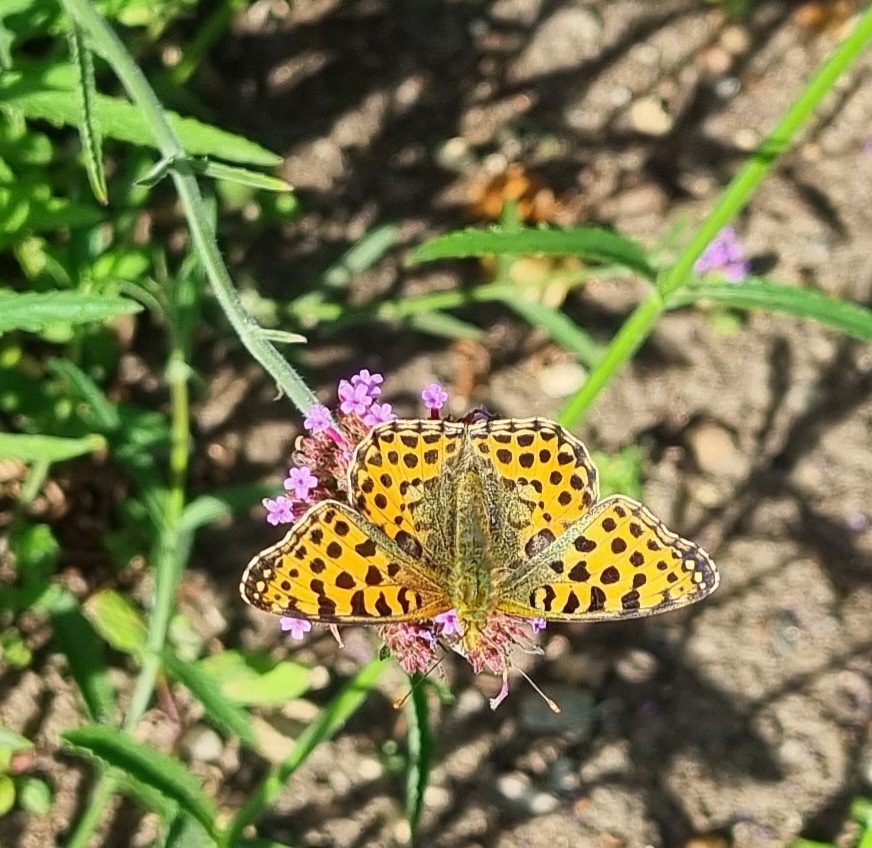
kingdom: Animalia
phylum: Arthropoda
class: Insecta
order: Lepidoptera
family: Nymphalidae
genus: Issoria
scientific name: Issoria lathonia
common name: Storplettet perlemorsommerfugl
